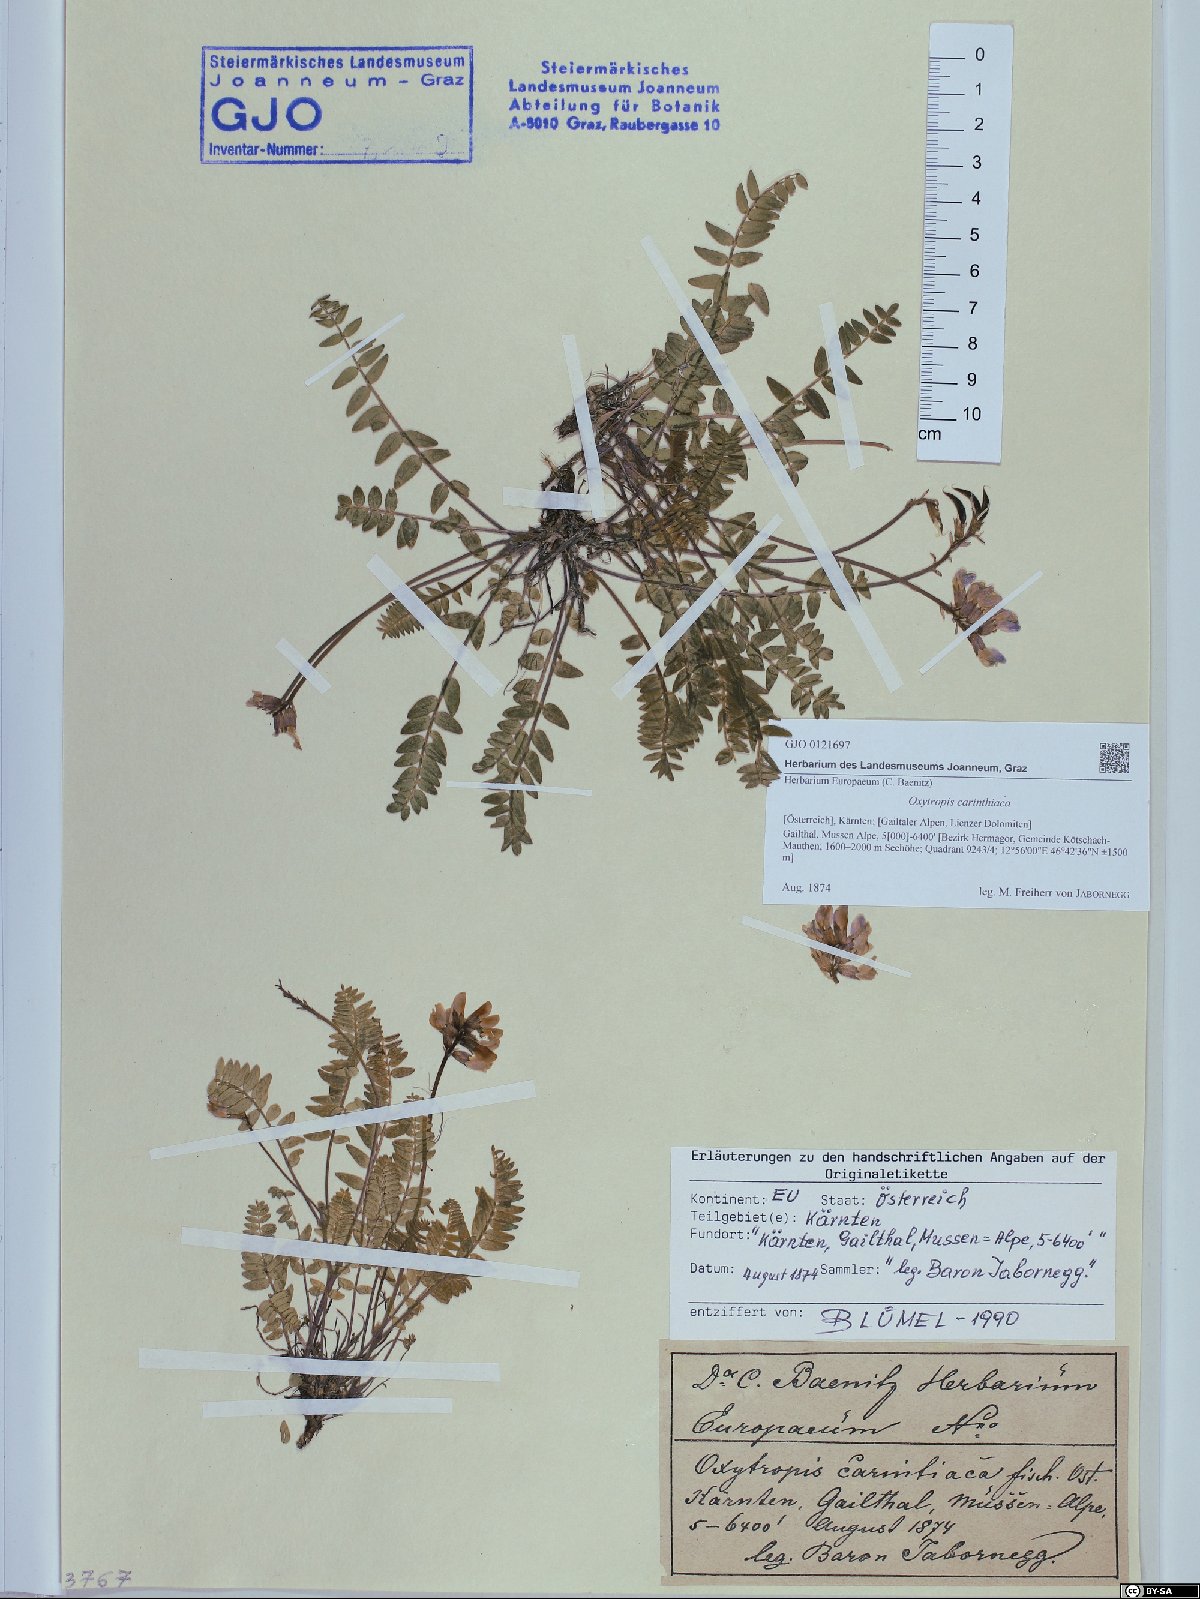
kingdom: Plantae
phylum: Tracheophyta
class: Magnoliopsida
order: Fabales
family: Fabaceae
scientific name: Fabaceae
